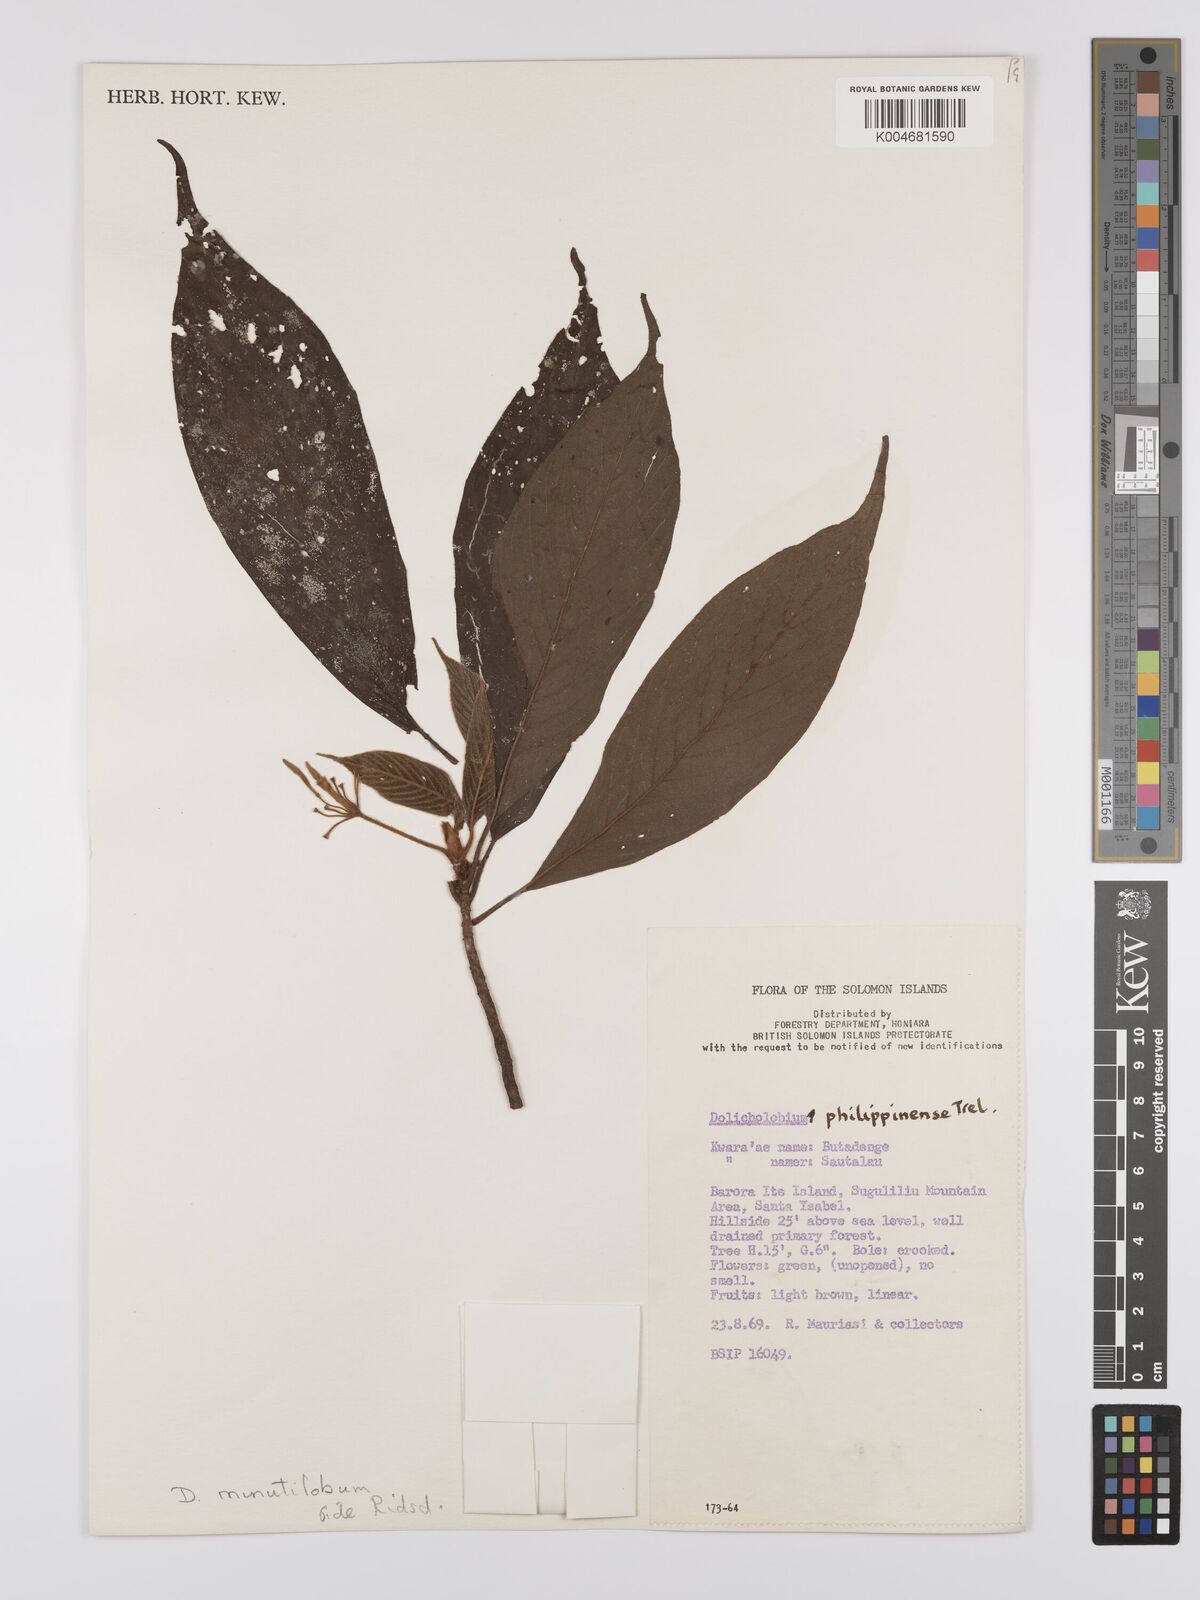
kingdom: Plantae
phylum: Tracheophyta
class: Magnoliopsida
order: Gentianales
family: Rubiaceae
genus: Dolicholobium
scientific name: Dolicholobium minutilobum
